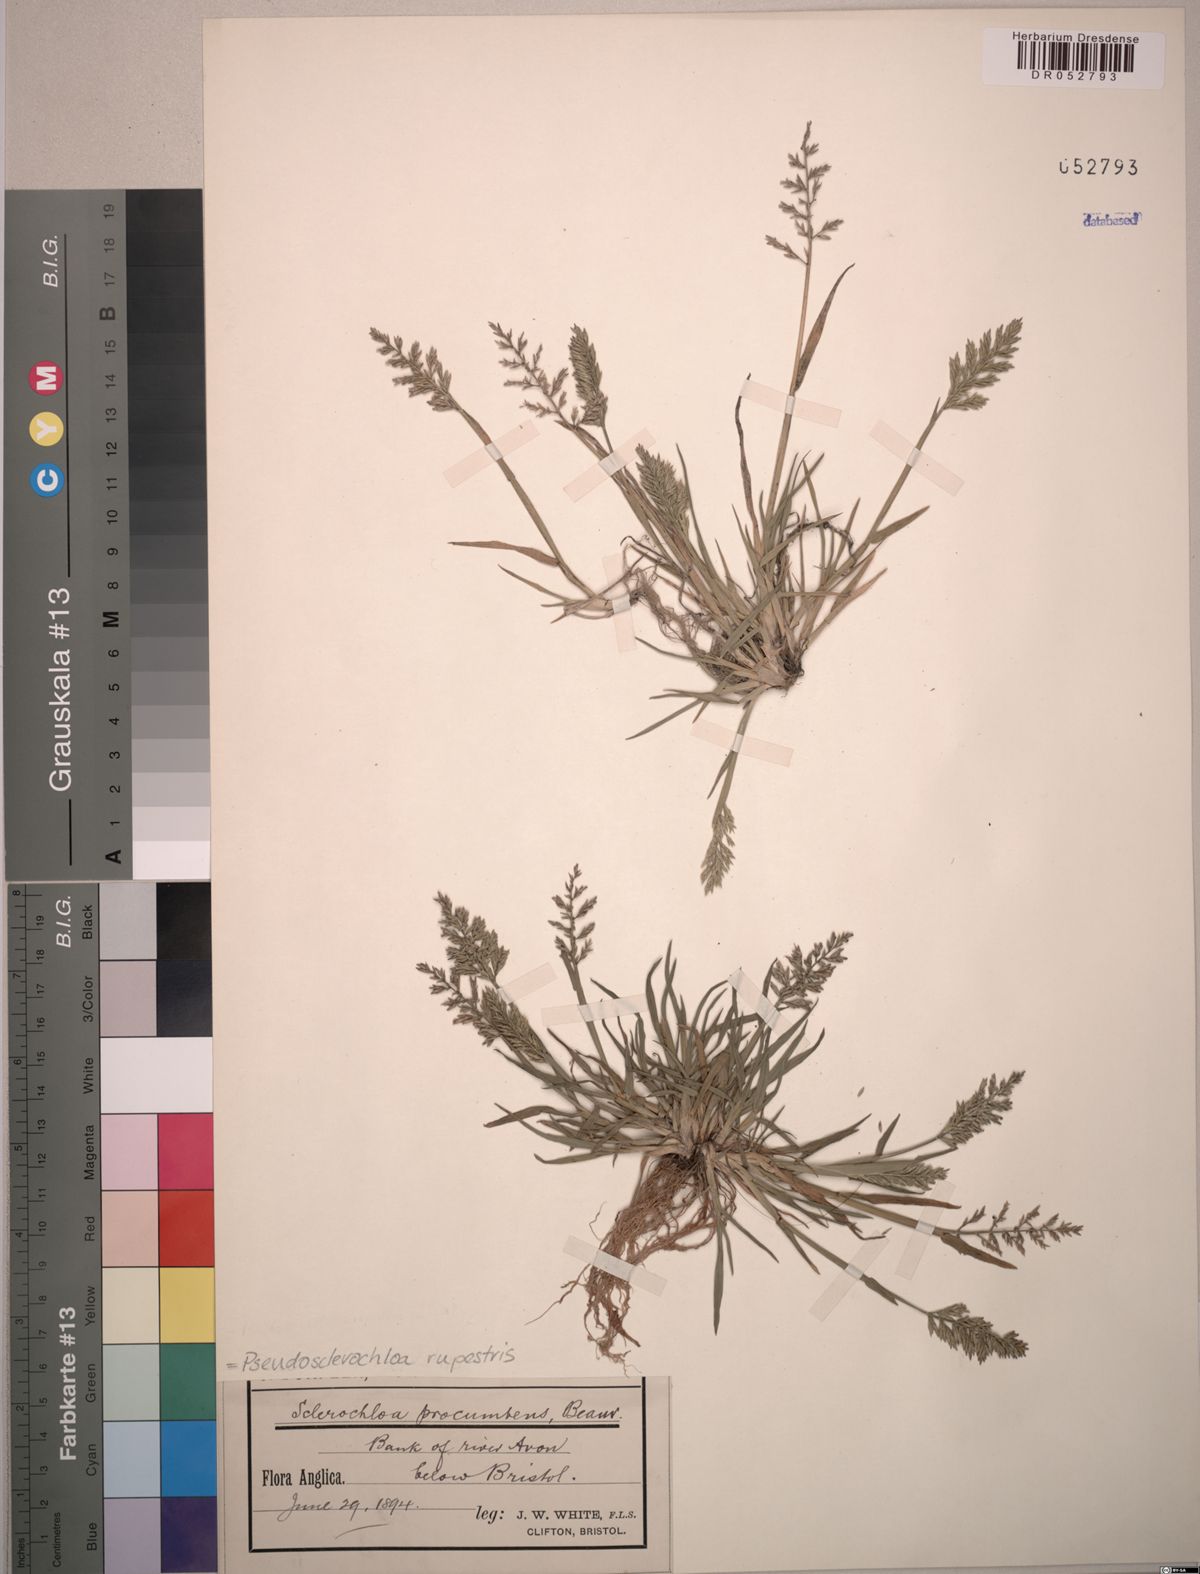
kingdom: Plantae
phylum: Tracheophyta
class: Liliopsida
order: Poales
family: Poaceae
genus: Puccinellia
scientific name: Puccinellia rupestris
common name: Stiff saltmarsh-grass
